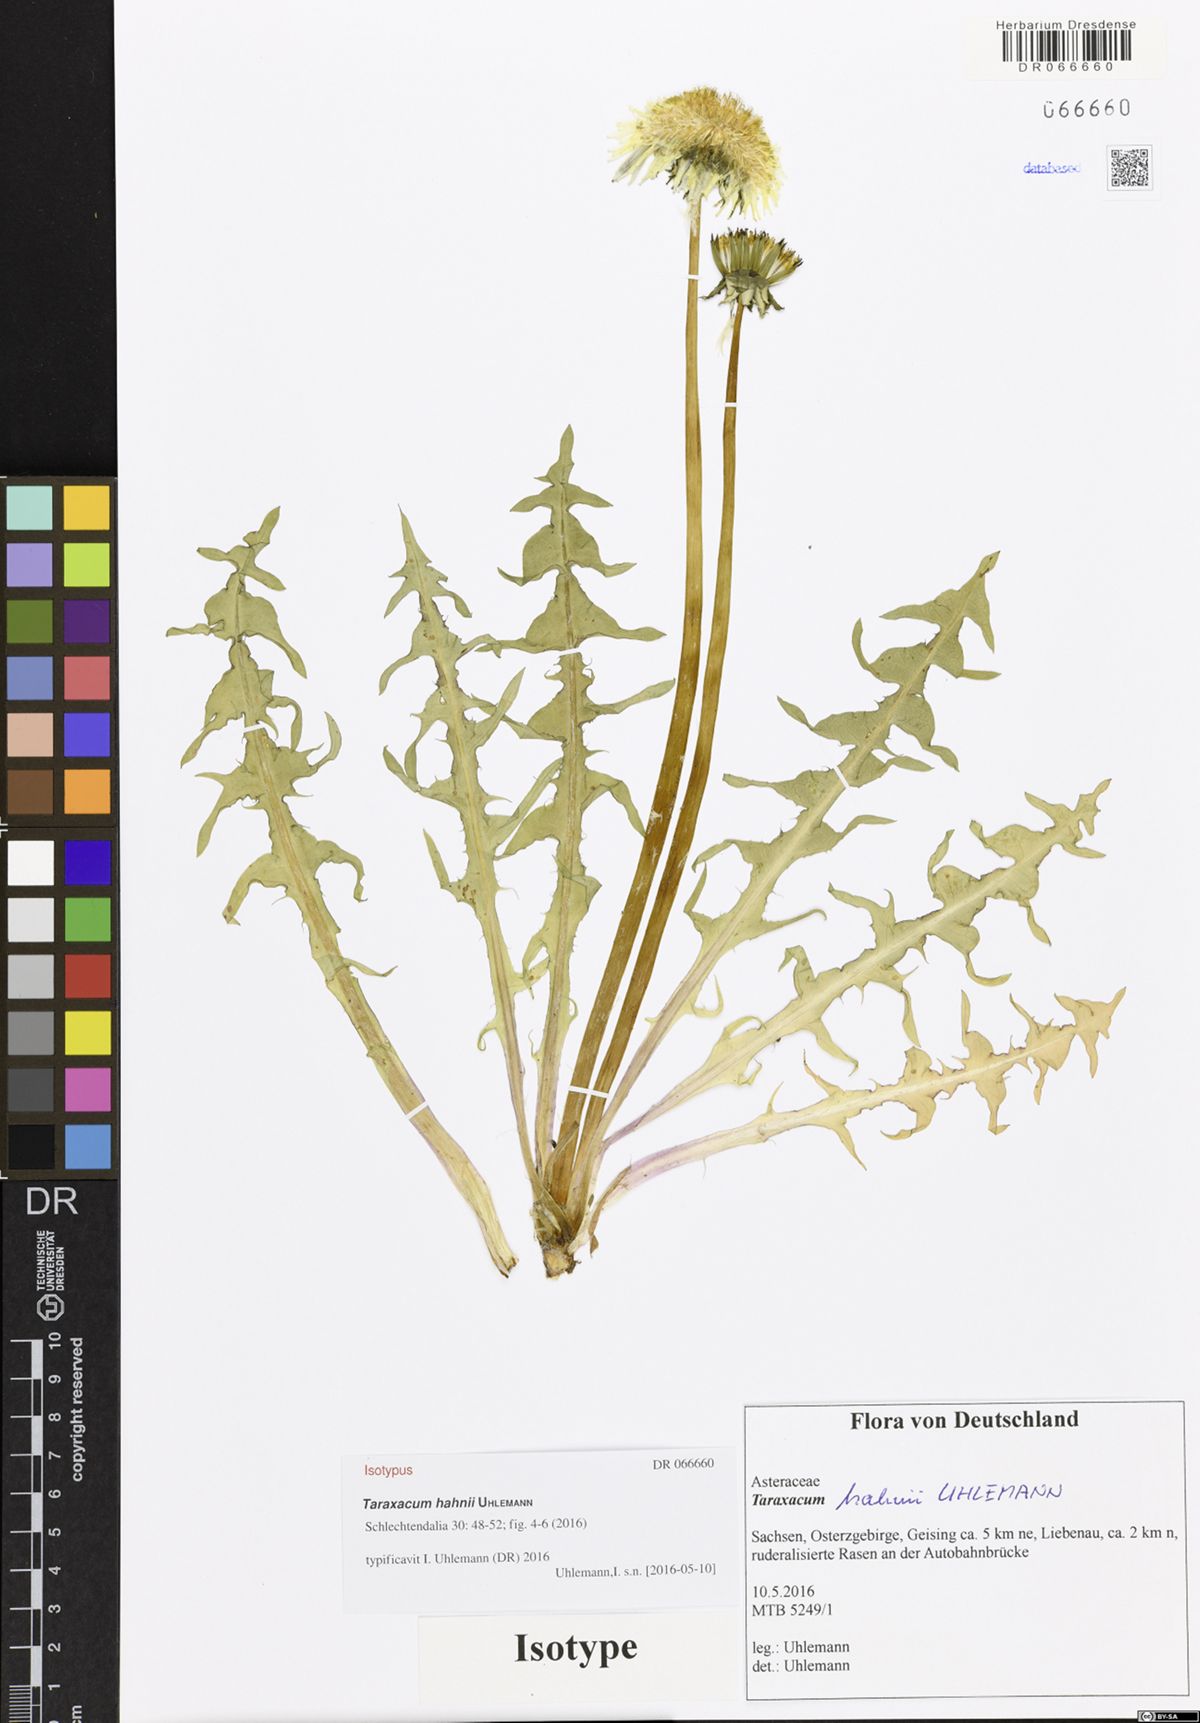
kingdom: Plantae
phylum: Tracheophyta
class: Magnoliopsida
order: Asterales
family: Asteraceae
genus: Taraxacum
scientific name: Taraxacum hahnii
